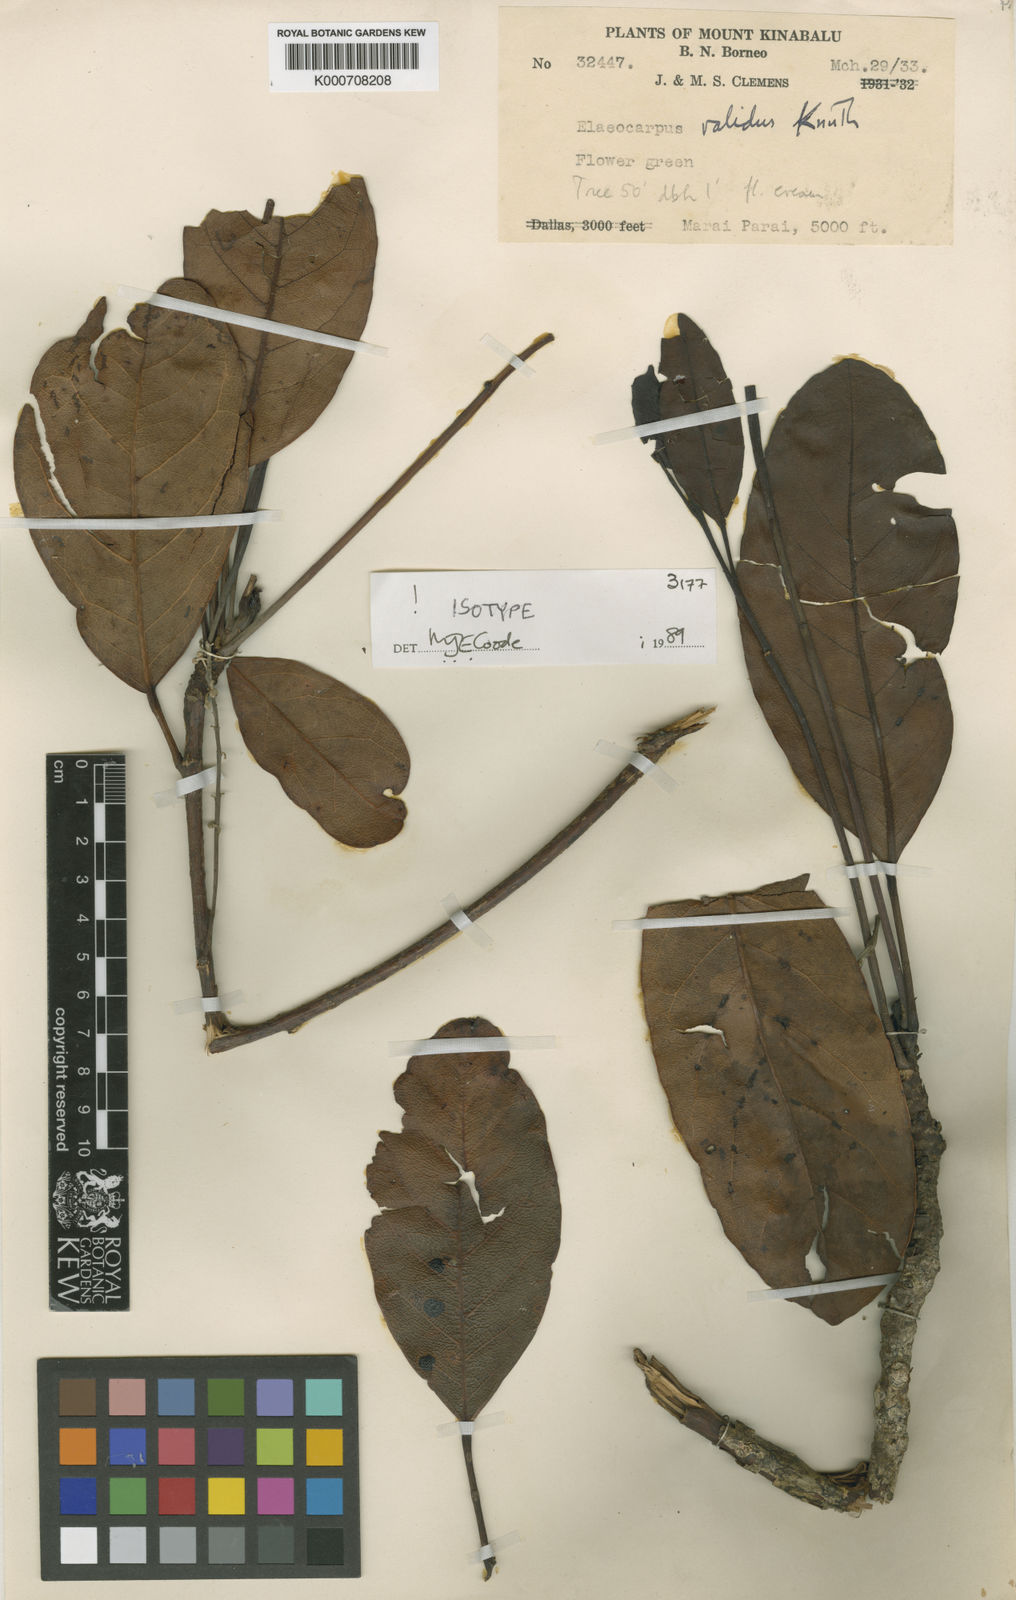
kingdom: Plantae
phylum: Tracheophyta
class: Magnoliopsida
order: Oxalidales
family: Elaeocarpaceae
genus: Elaeocarpus
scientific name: Elaeocarpus validus
